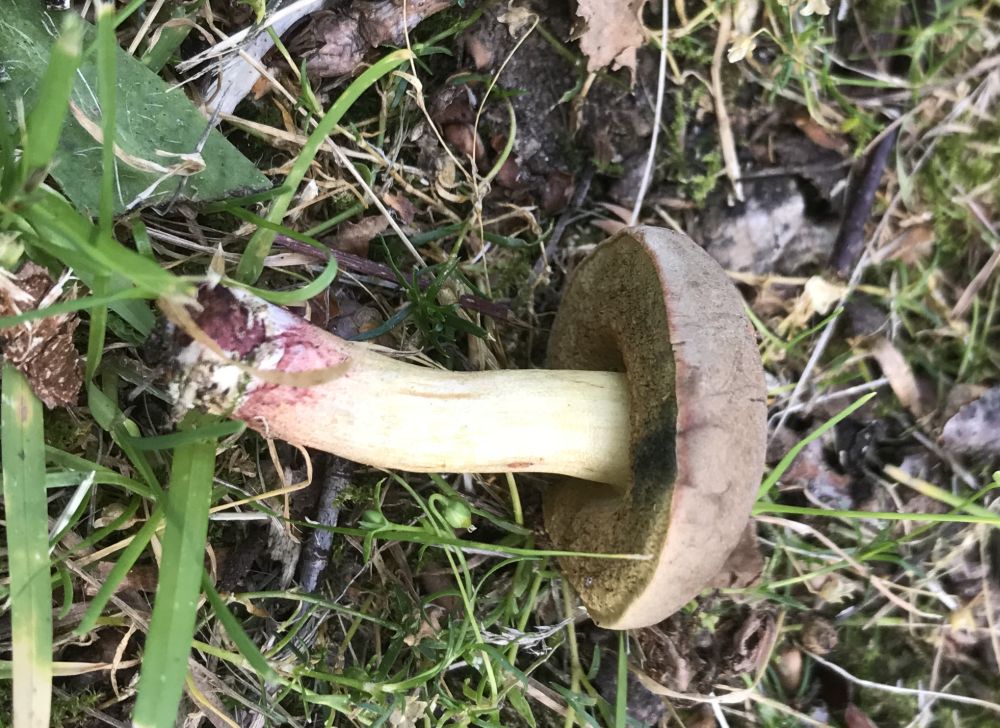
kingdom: Fungi
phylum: Basidiomycota
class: Agaricomycetes
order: Boletales
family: Boletaceae
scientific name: Boletaceae
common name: rørhatfamilien
